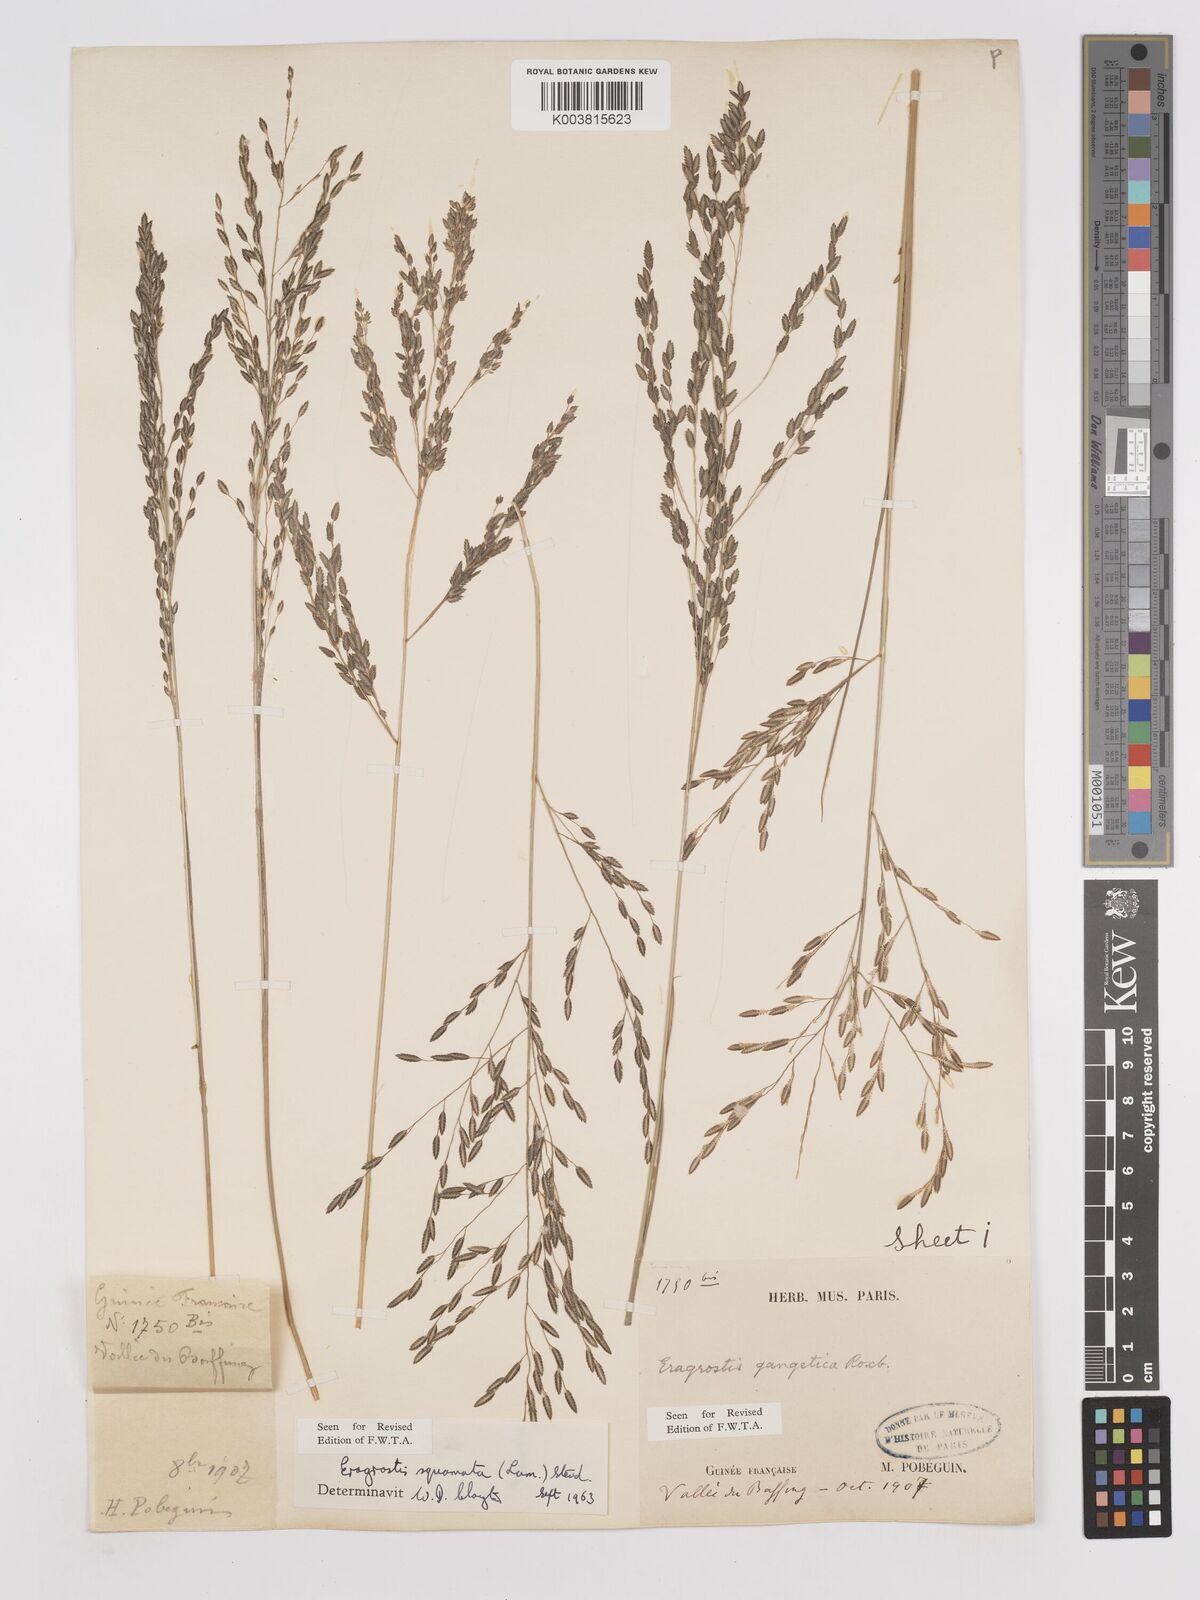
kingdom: Plantae
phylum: Tracheophyta
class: Liliopsida
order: Poales
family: Poaceae
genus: Eragrostis
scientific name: Eragrostis squamata
